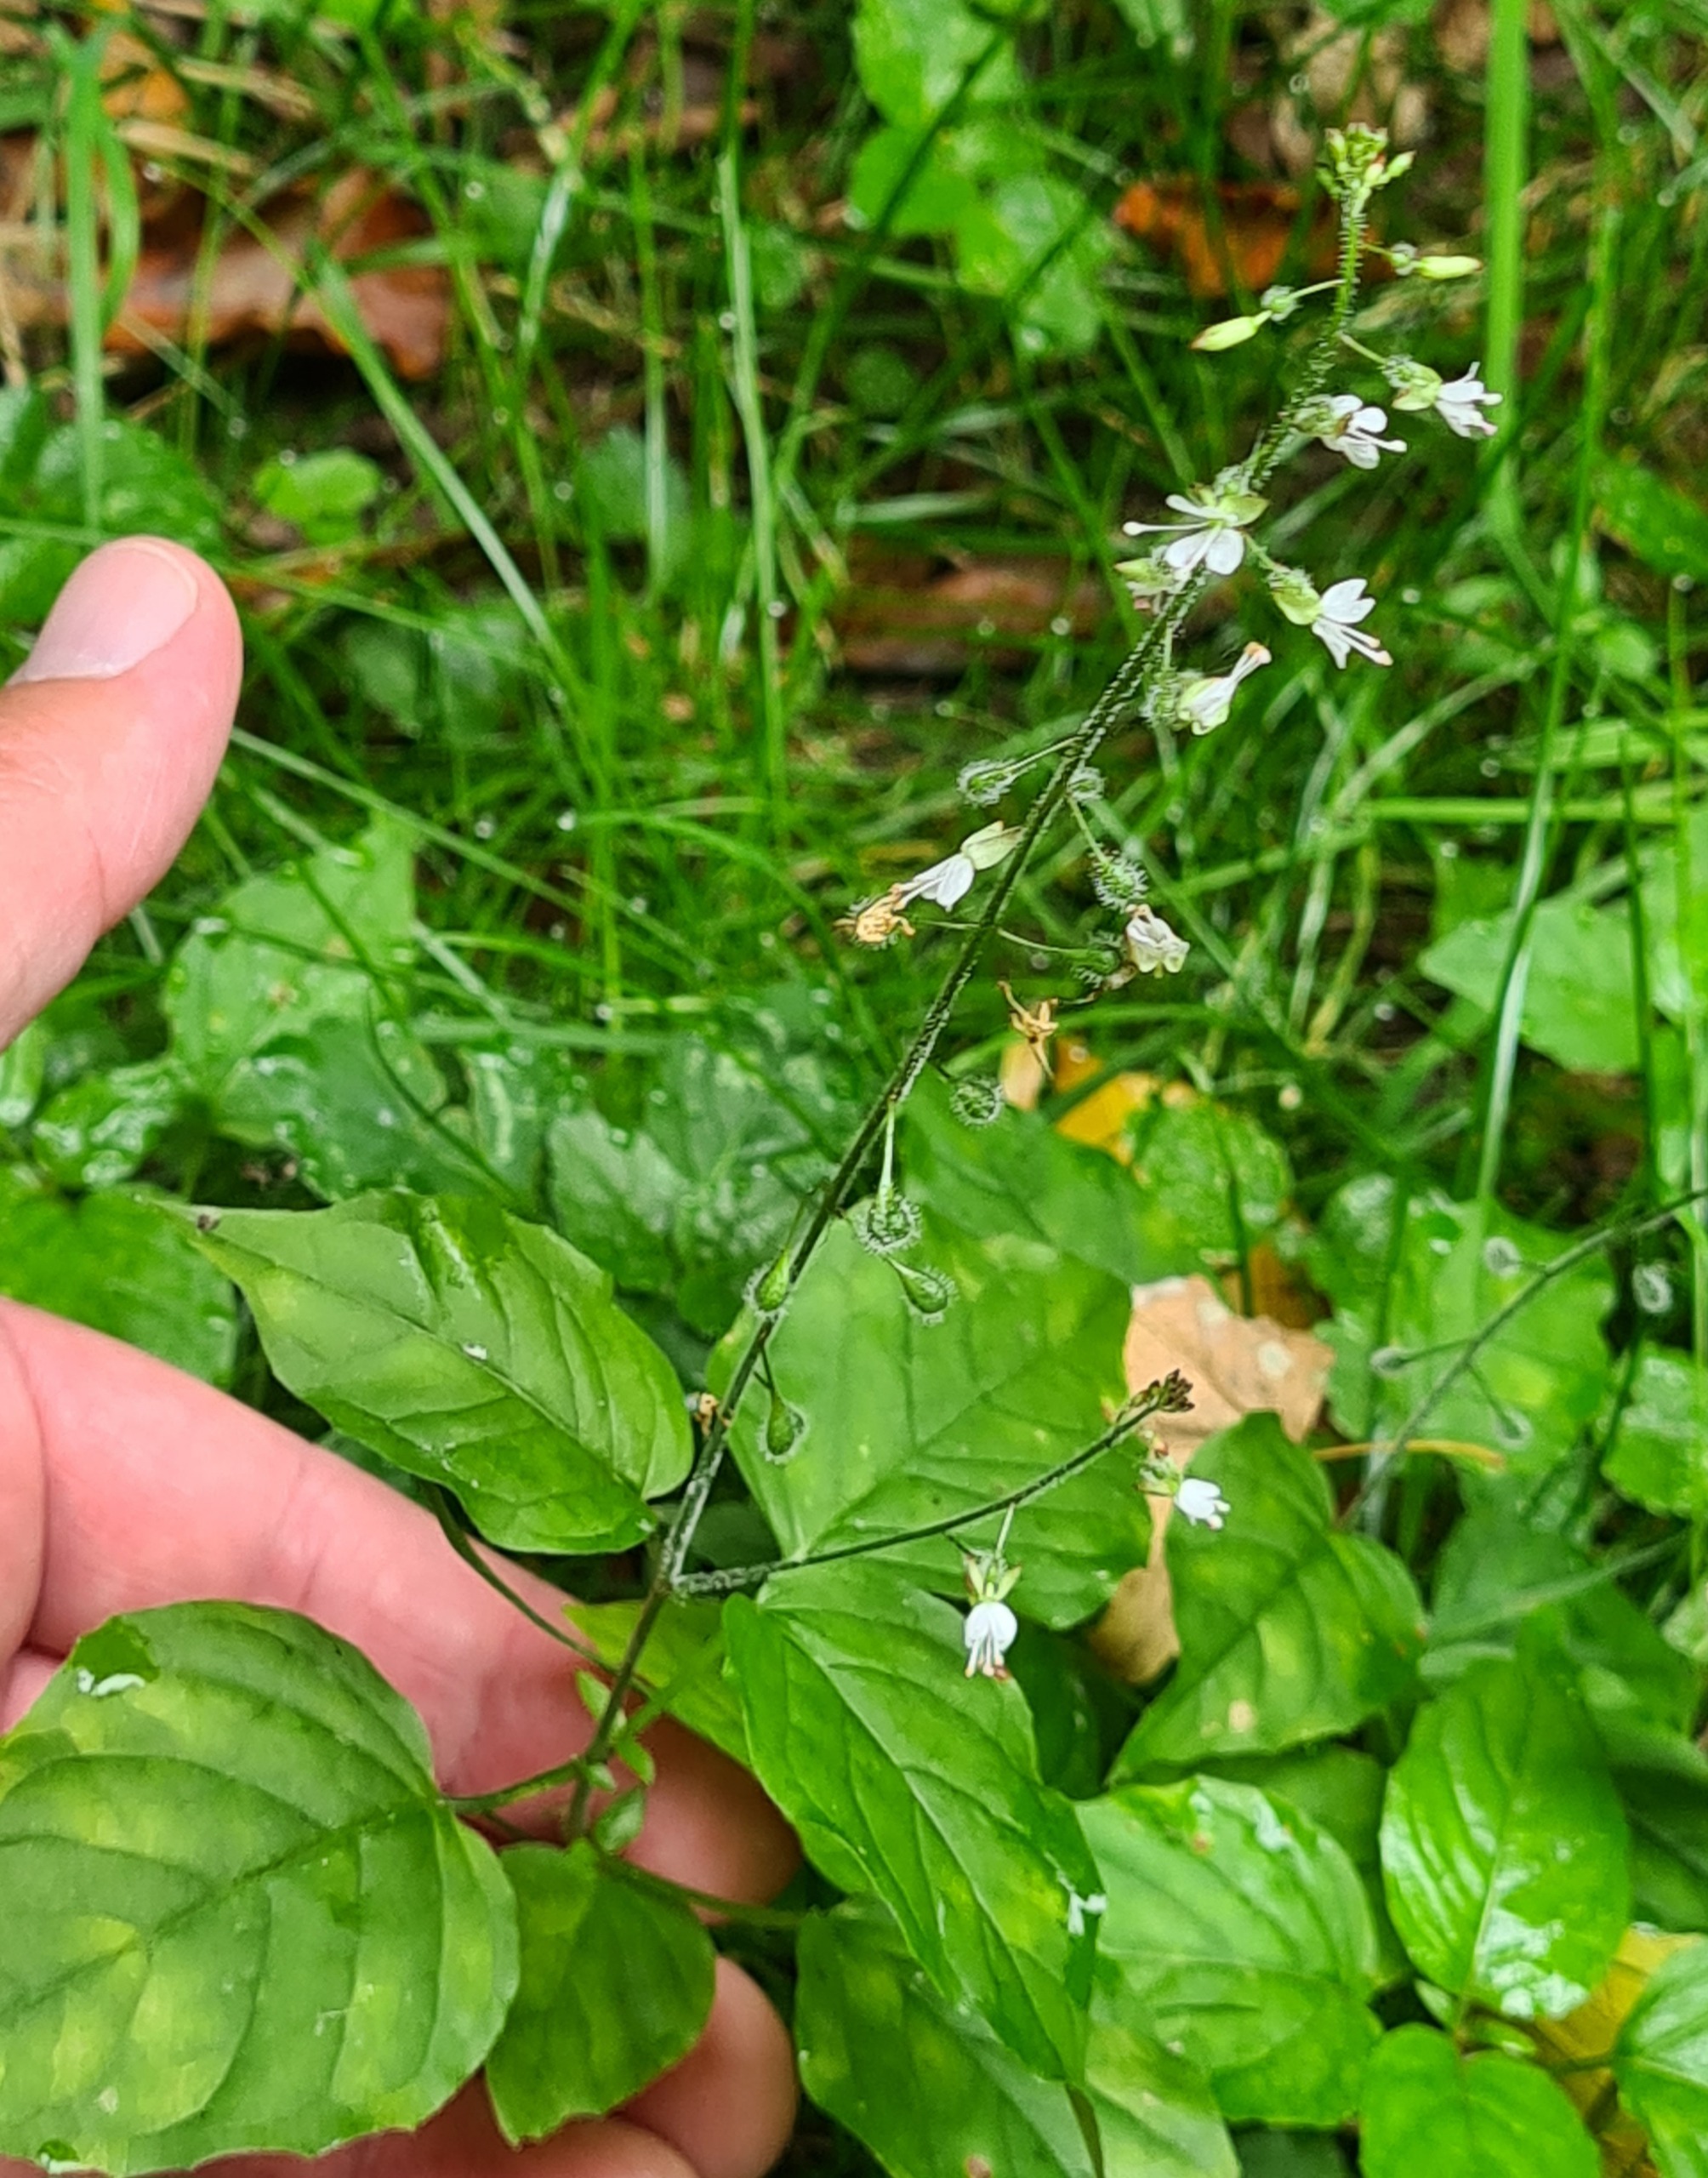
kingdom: Plantae
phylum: Tracheophyta
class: Magnoliopsida
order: Myrtales
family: Onagraceae
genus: Circaea
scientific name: Circaea lutetiana
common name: Dunet steffensurt
